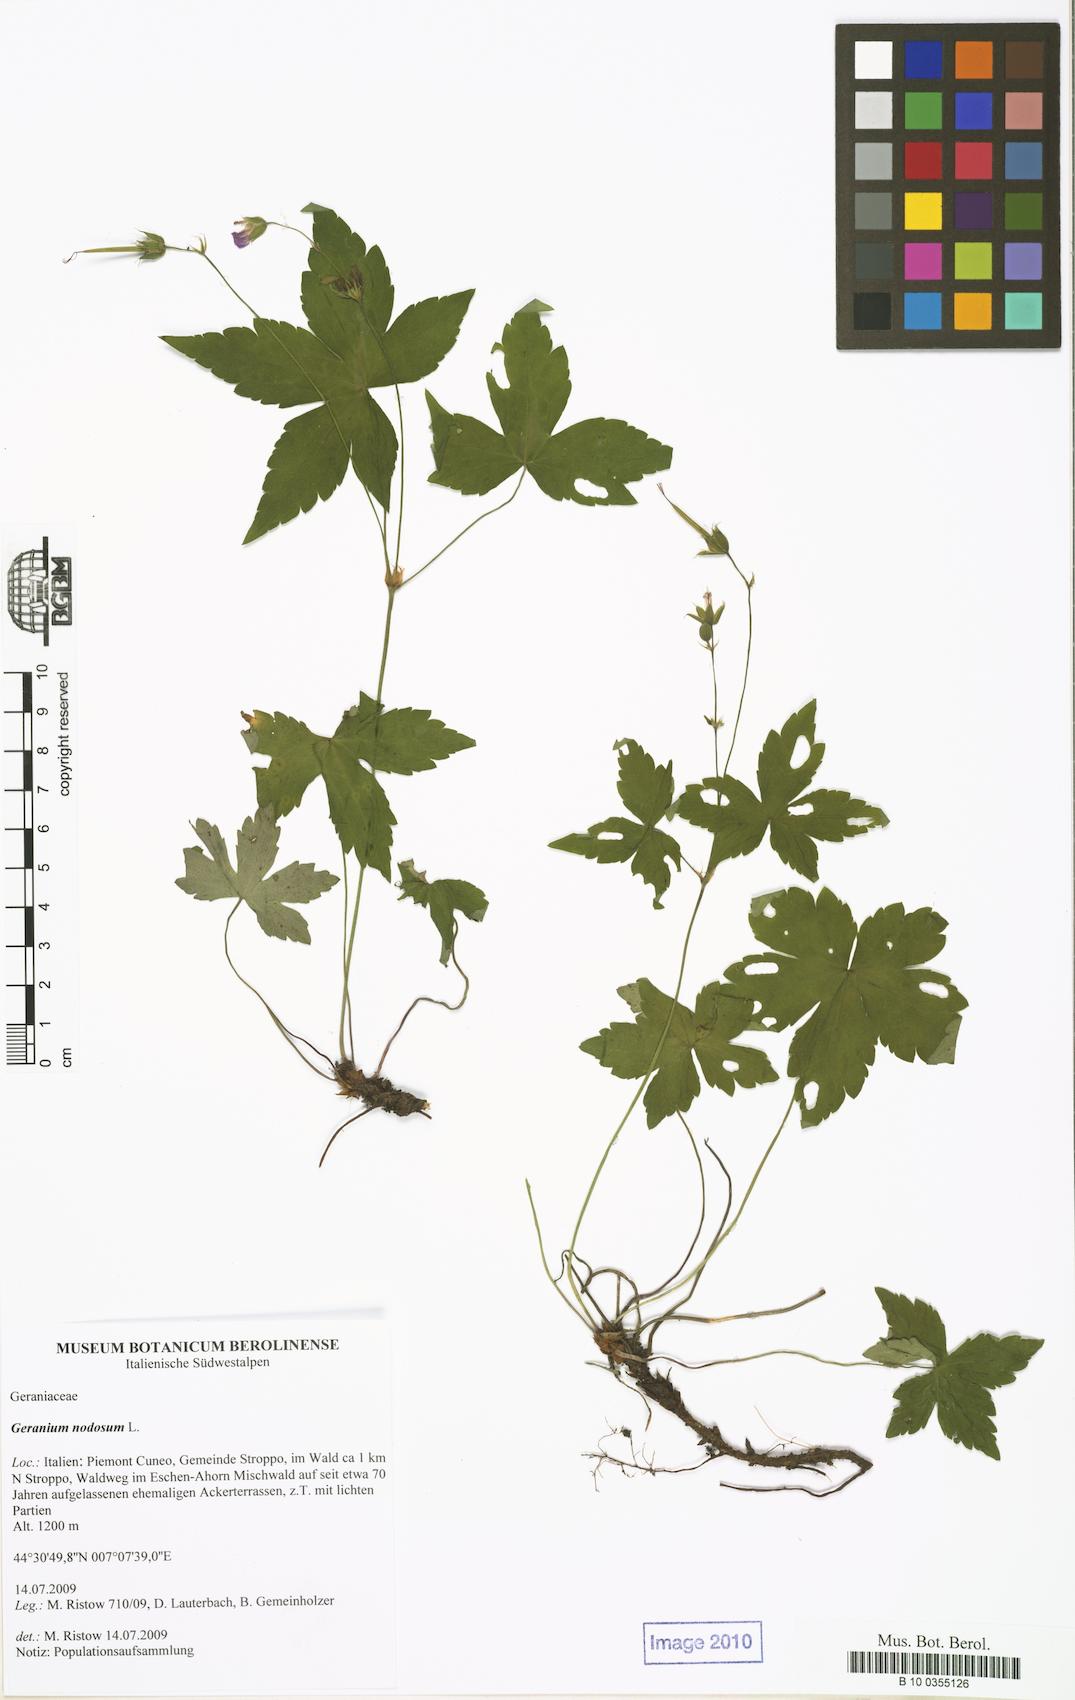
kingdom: Plantae
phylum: Tracheophyta
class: Magnoliopsida
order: Geraniales
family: Geraniaceae
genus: Geranium
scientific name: Geranium nodosum
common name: Knotted crane's-bill
